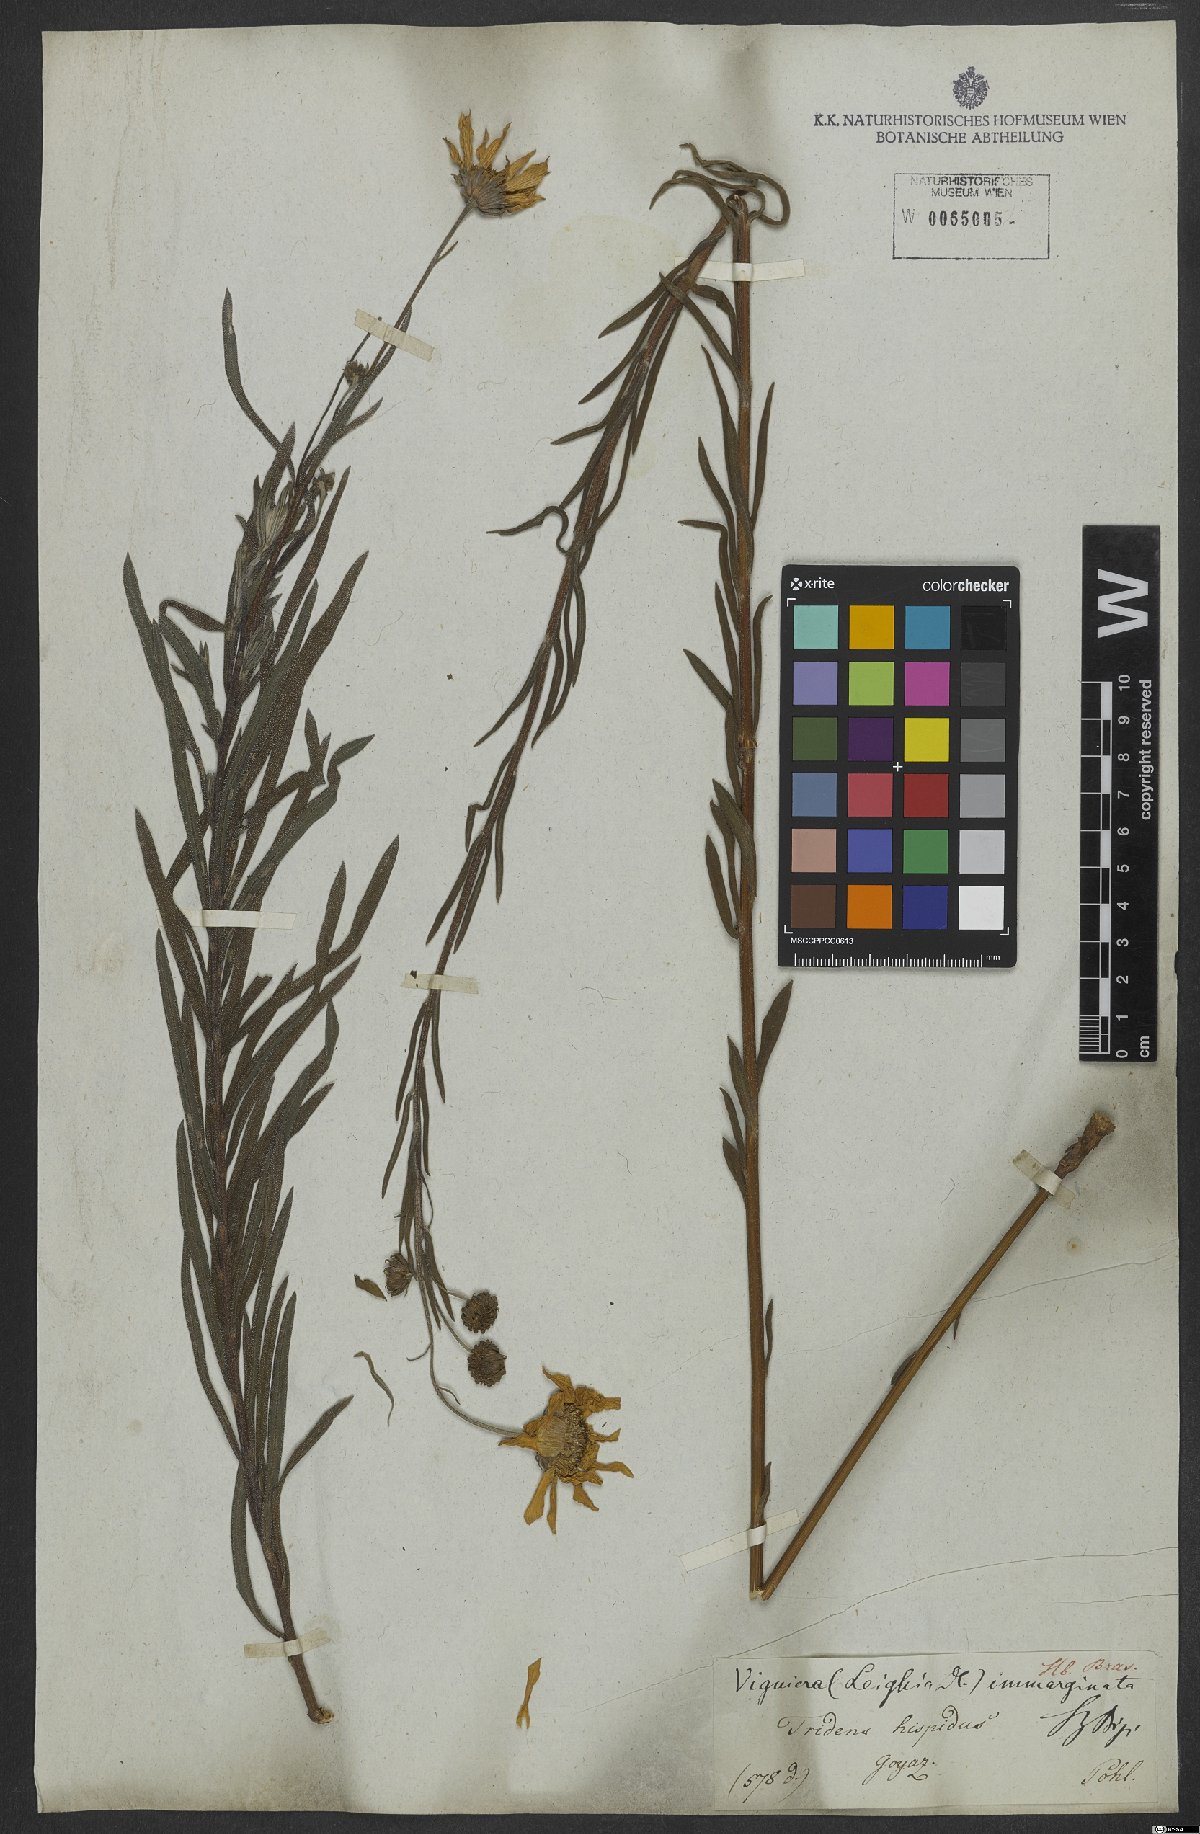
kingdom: Plantae
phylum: Tracheophyta
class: Magnoliopsida
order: Asterales
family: Asteraceae
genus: Aldama
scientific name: Aldama anchusifolia
